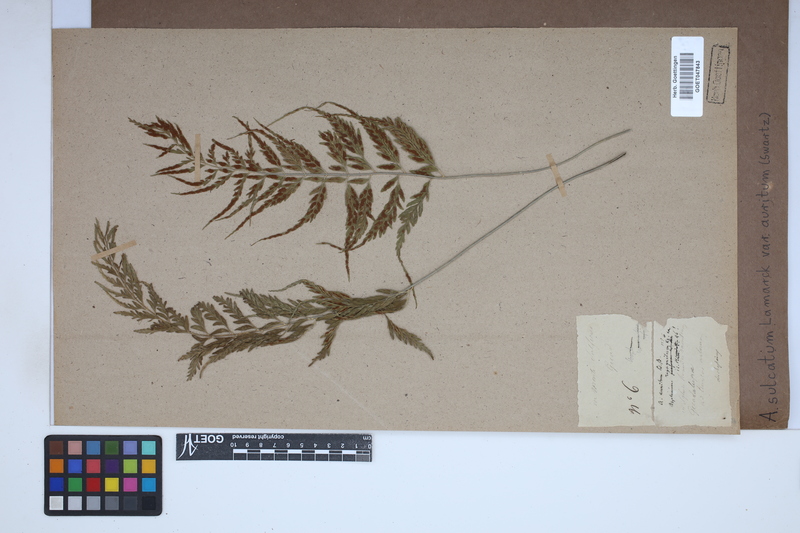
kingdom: Plantae
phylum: Tracheophyta
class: Polypodiopsida
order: Polypodiales
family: Aspleniaceae
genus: Asplenium
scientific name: Asplenium auritum
